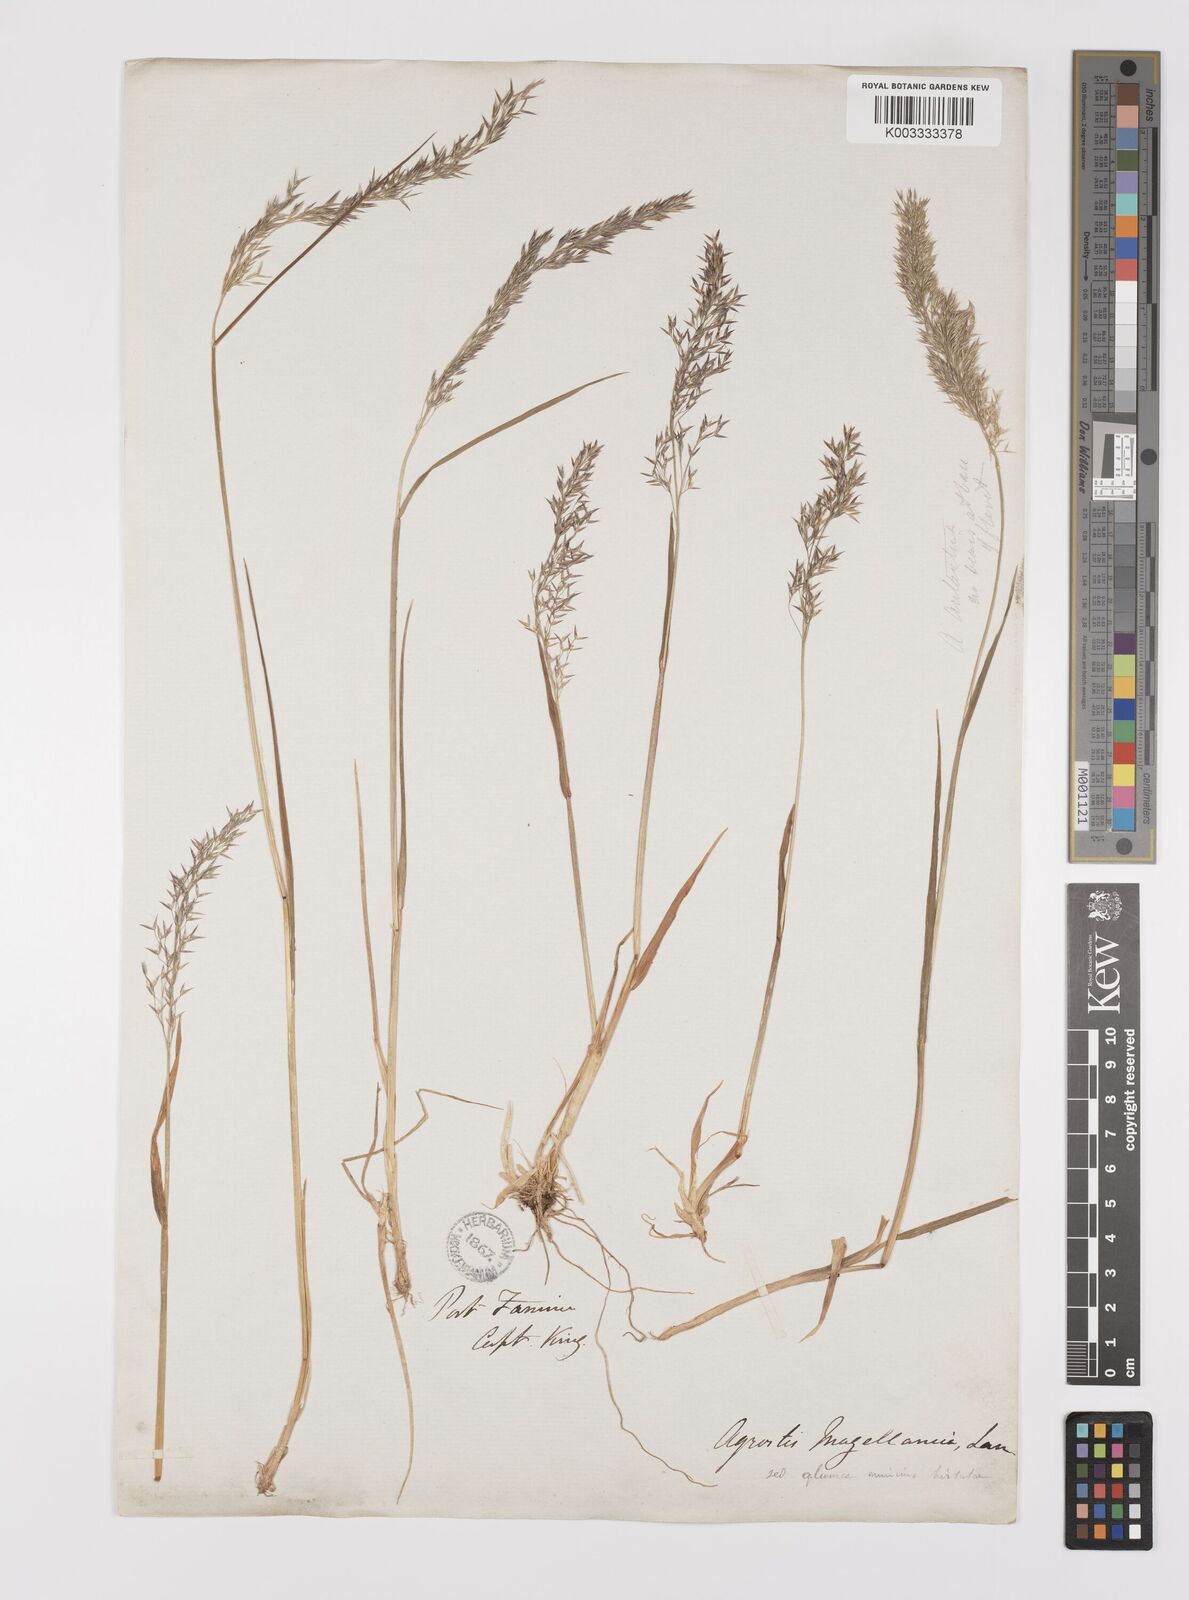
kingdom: Plantae
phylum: Tracheophyta
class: Liliopsida
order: Poales
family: Poaceae
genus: Polypogon
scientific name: Polypogon magellanicus
